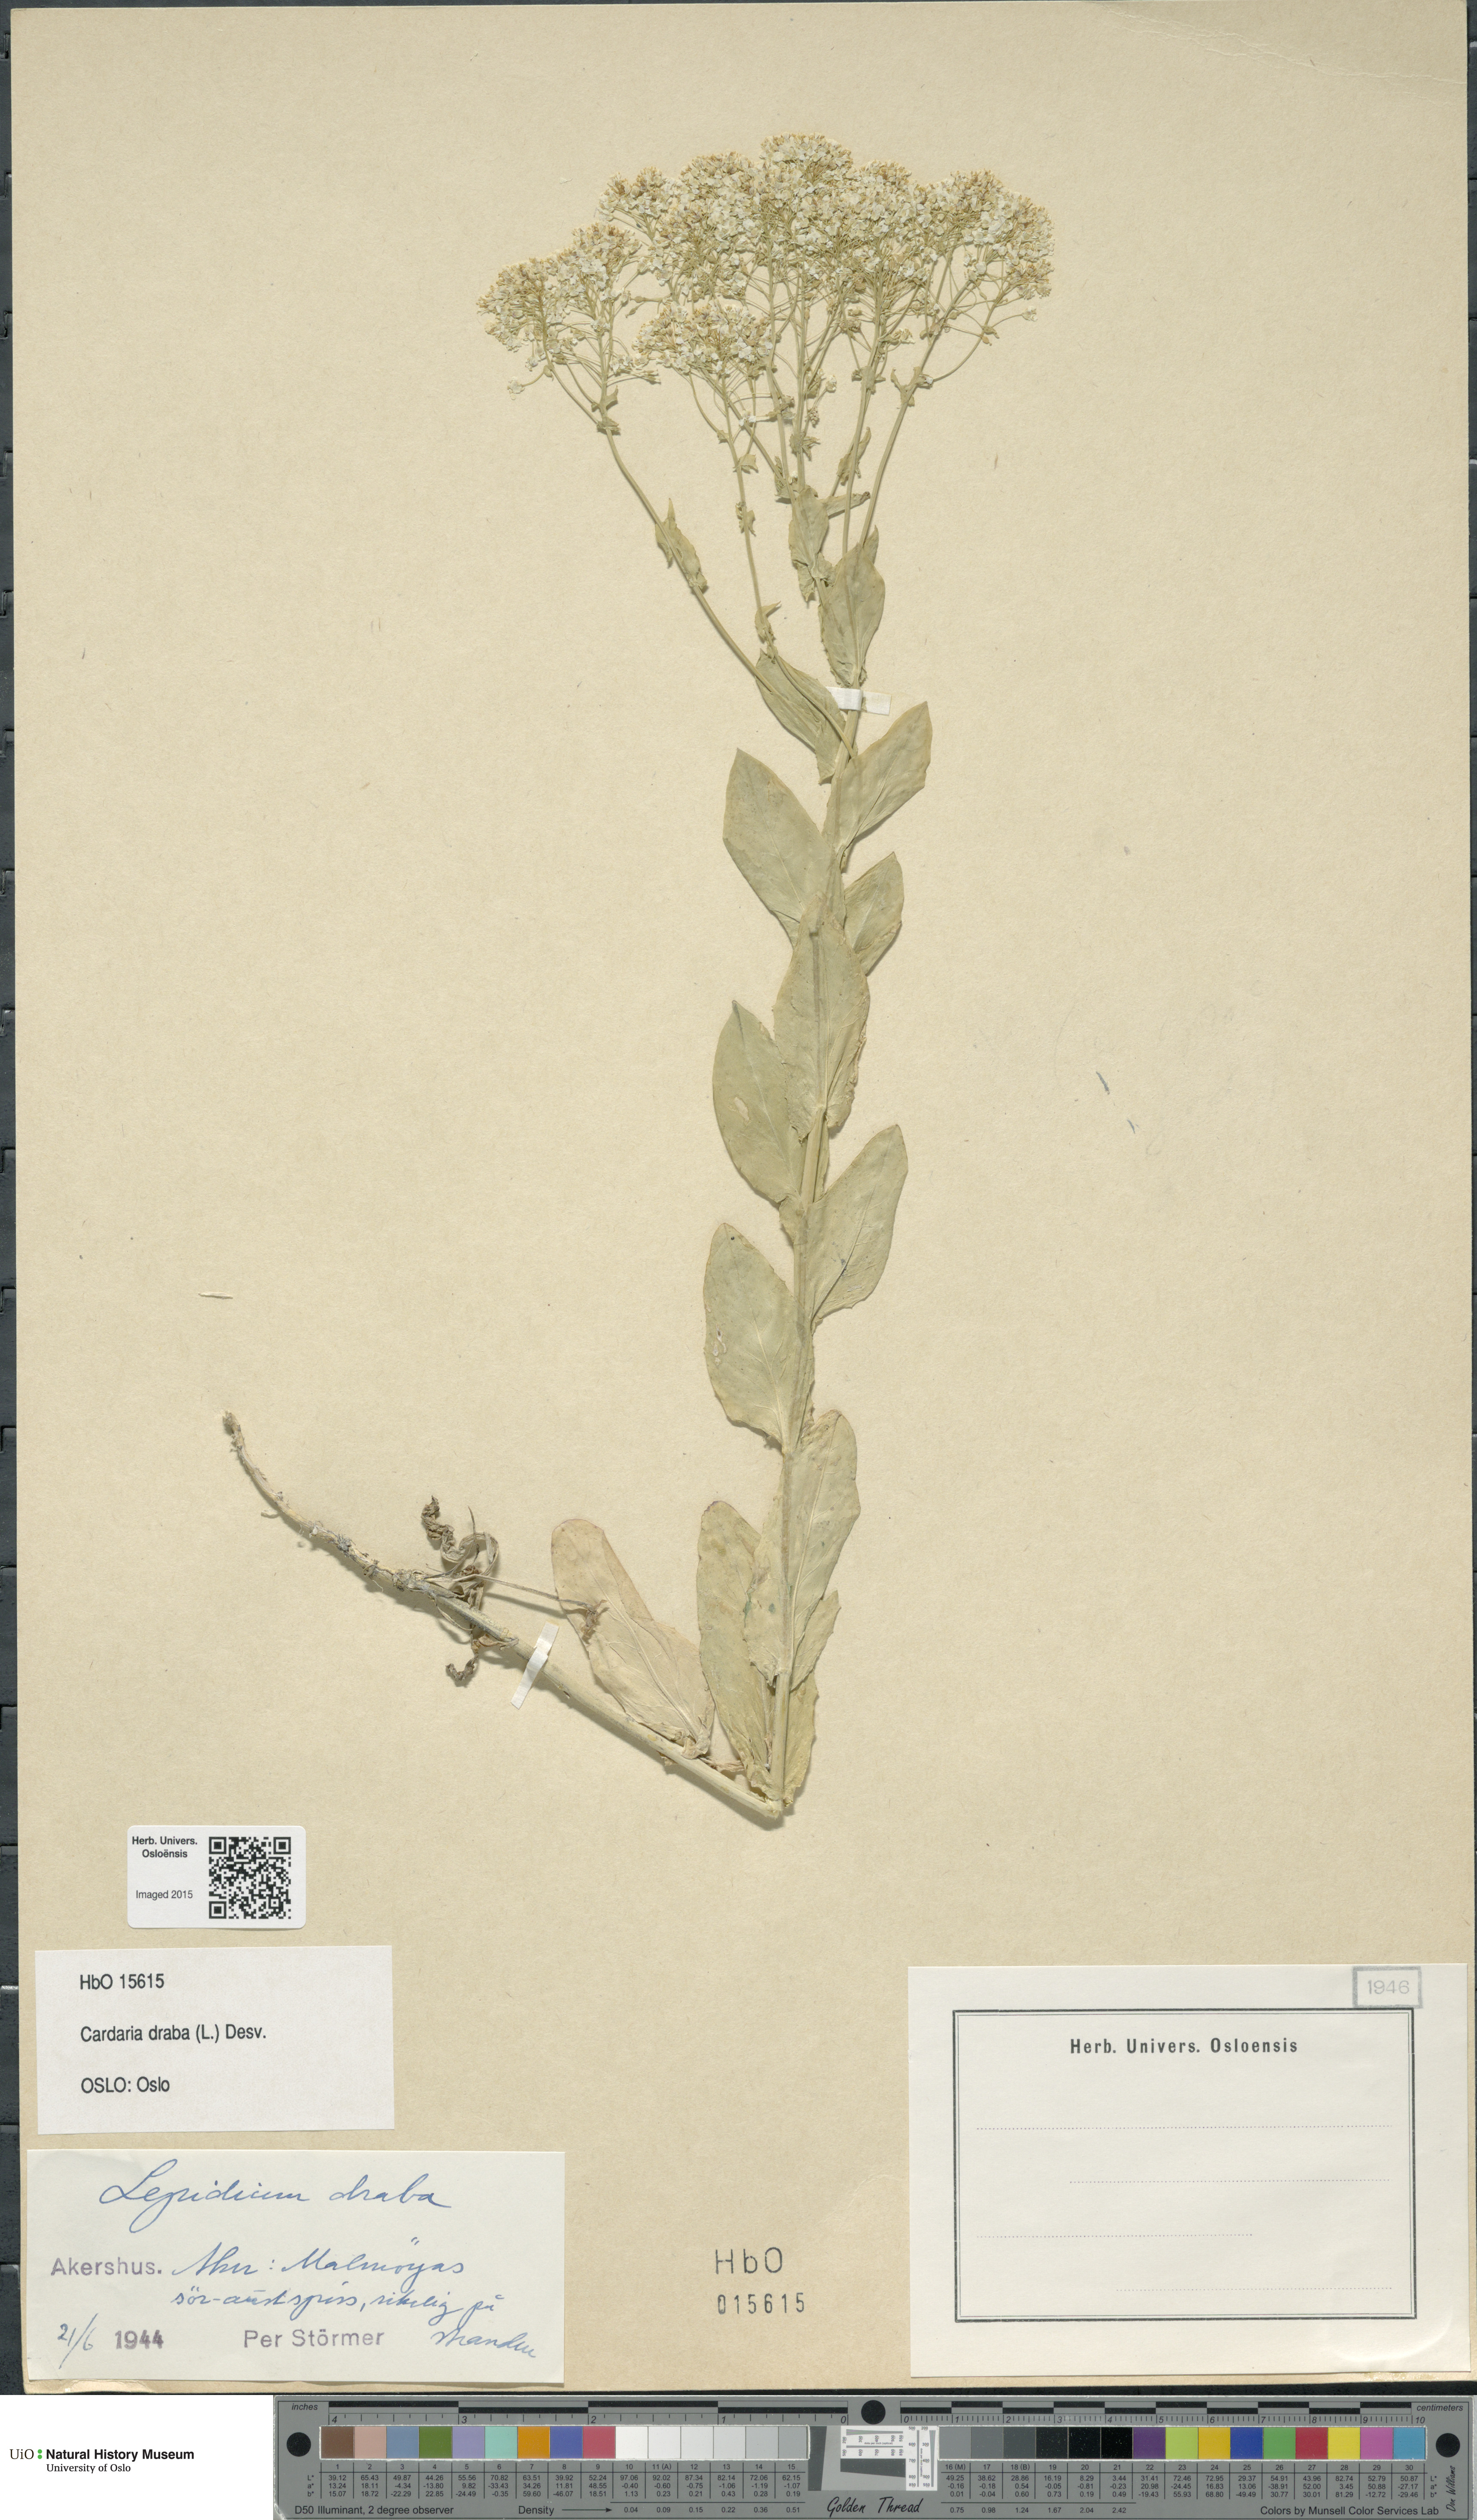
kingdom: Plantae
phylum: Tracheophyta
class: Magnoliopsida
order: Brassicales
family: Brassicaceae
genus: Lepidium
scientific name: Lepidium draba
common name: Hoary cress
